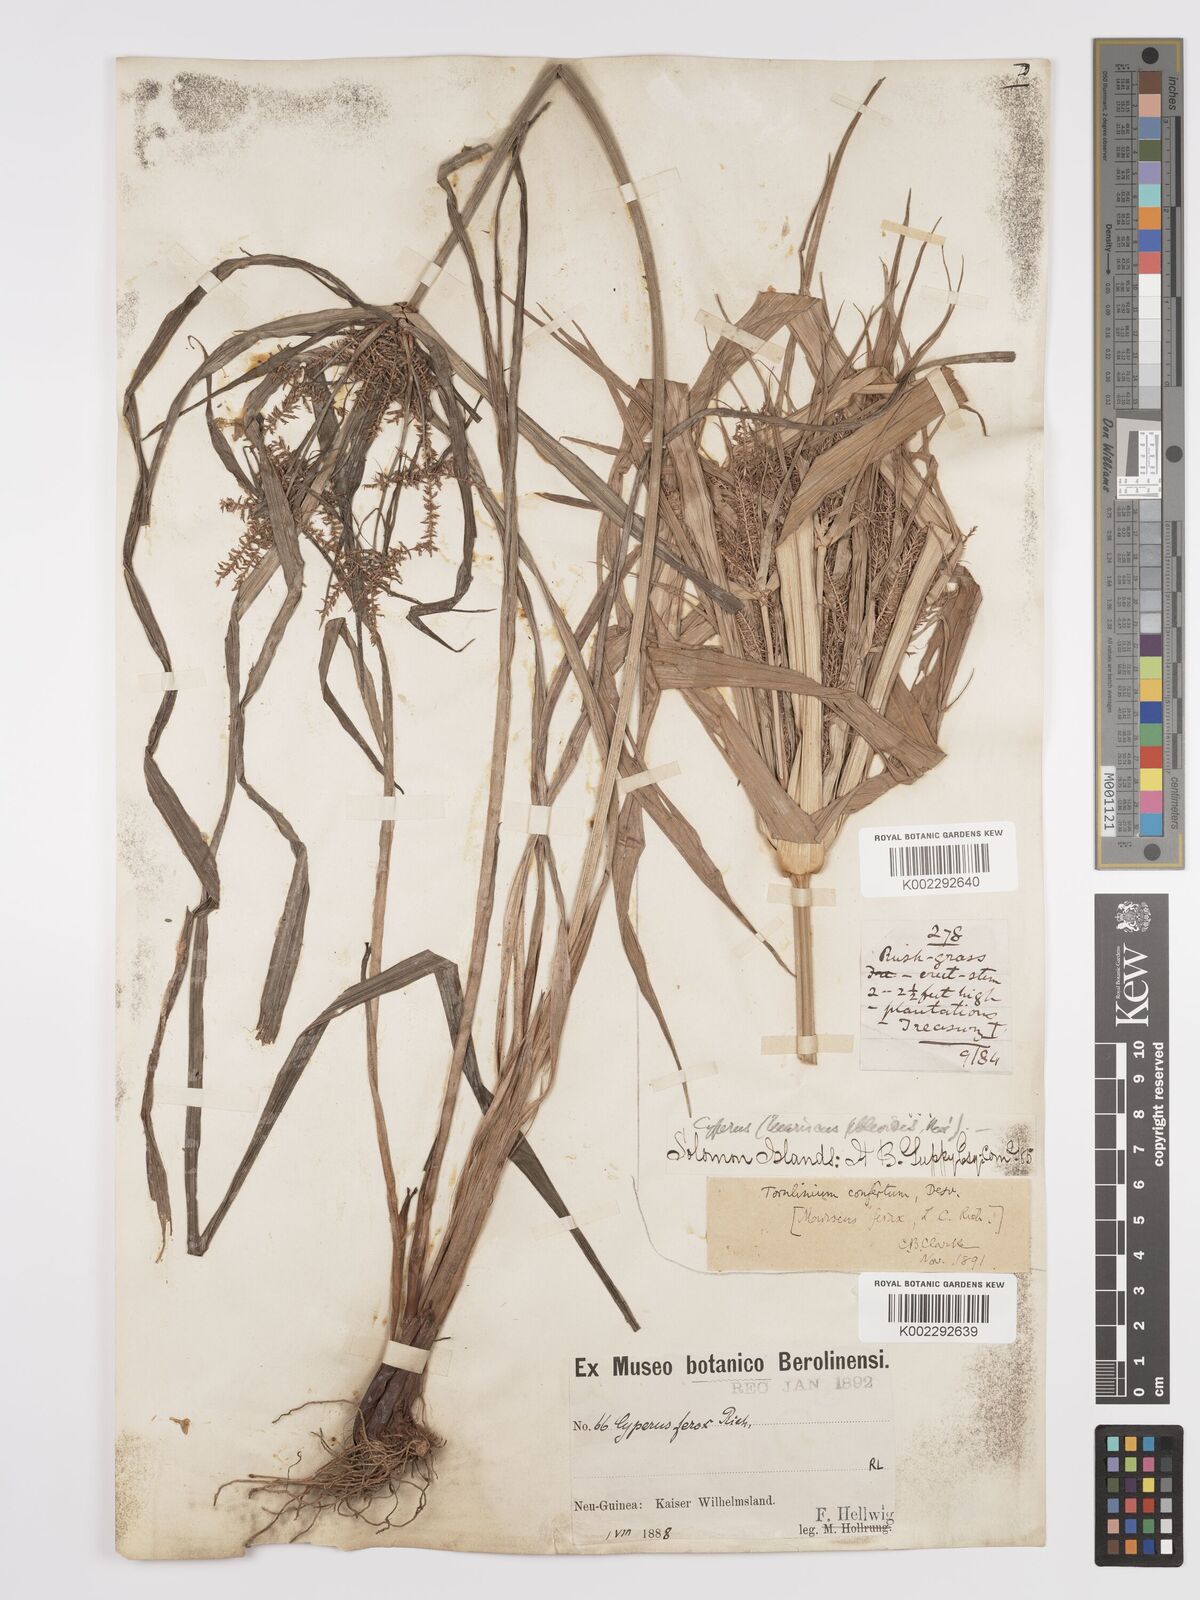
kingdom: Plantae
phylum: Tracheophyta
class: Liliopsida
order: Poales
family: Cyperaceae
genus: Cyperus
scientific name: Cyperus odoratus
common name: Fragrant flatsedge
